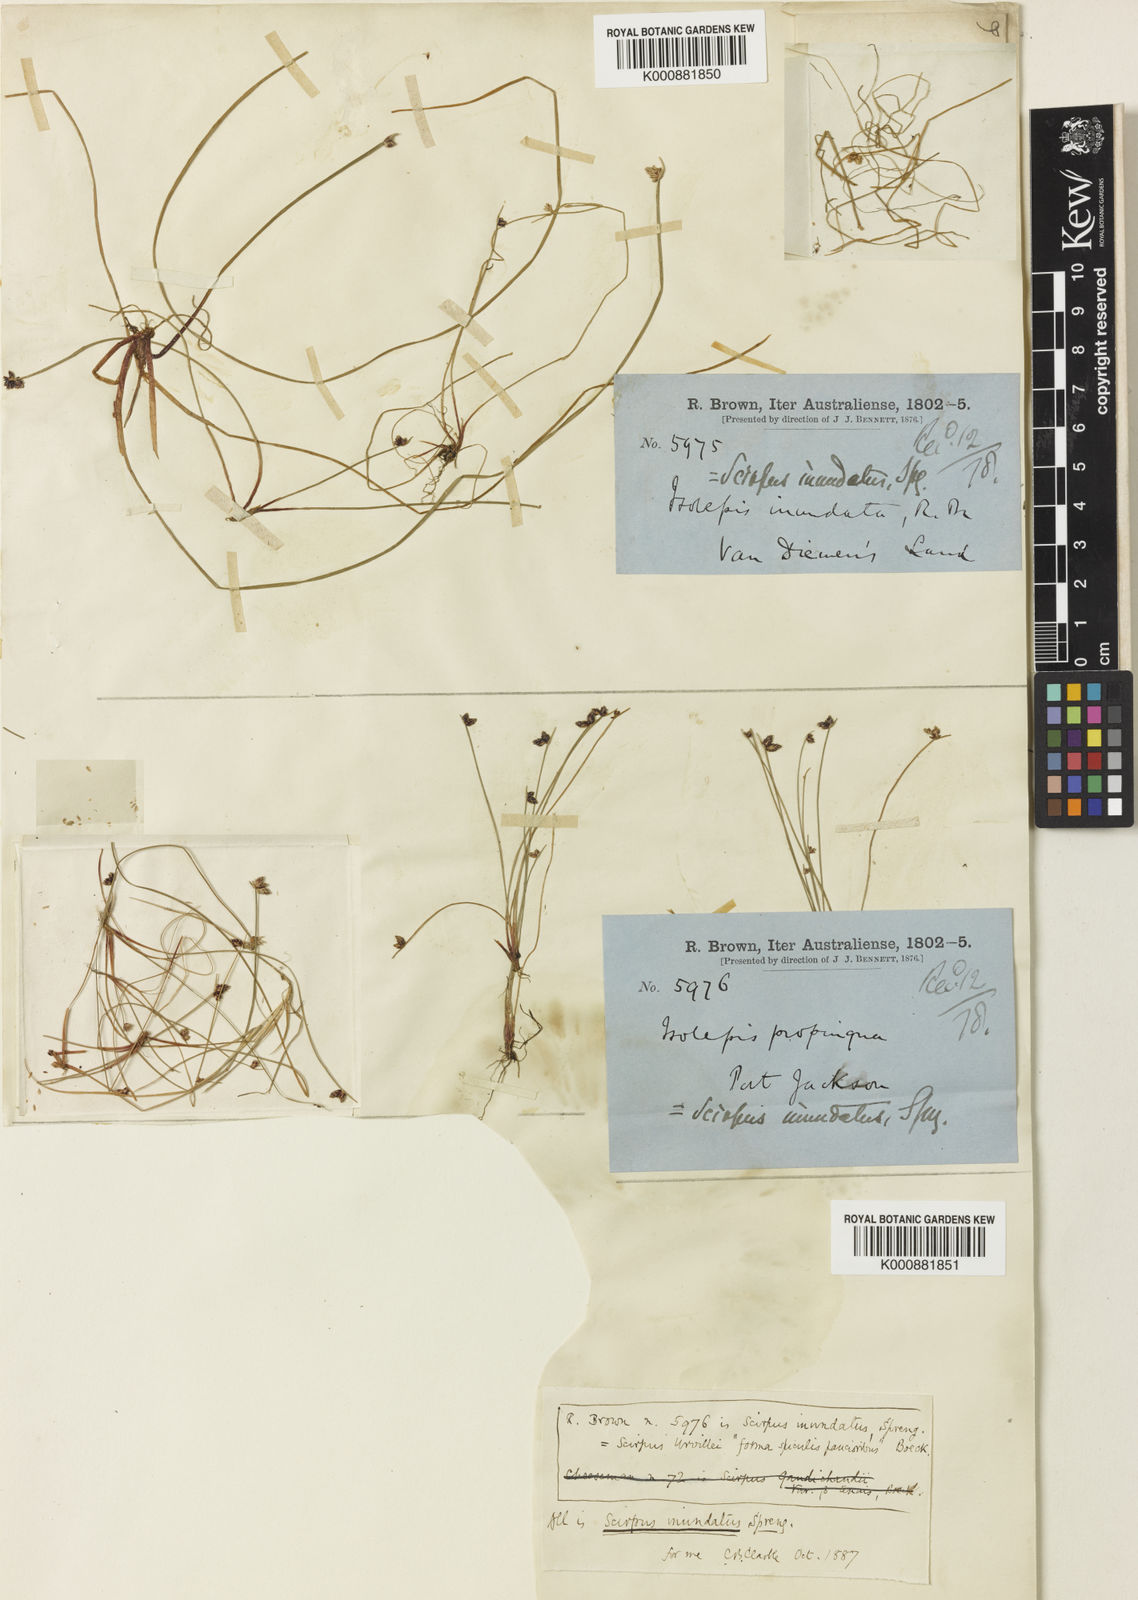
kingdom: Plantae
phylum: Tracheophyta
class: Liliopsida
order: Poales
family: Cyperaceae
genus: Isolepis
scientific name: Isolepis inundata
